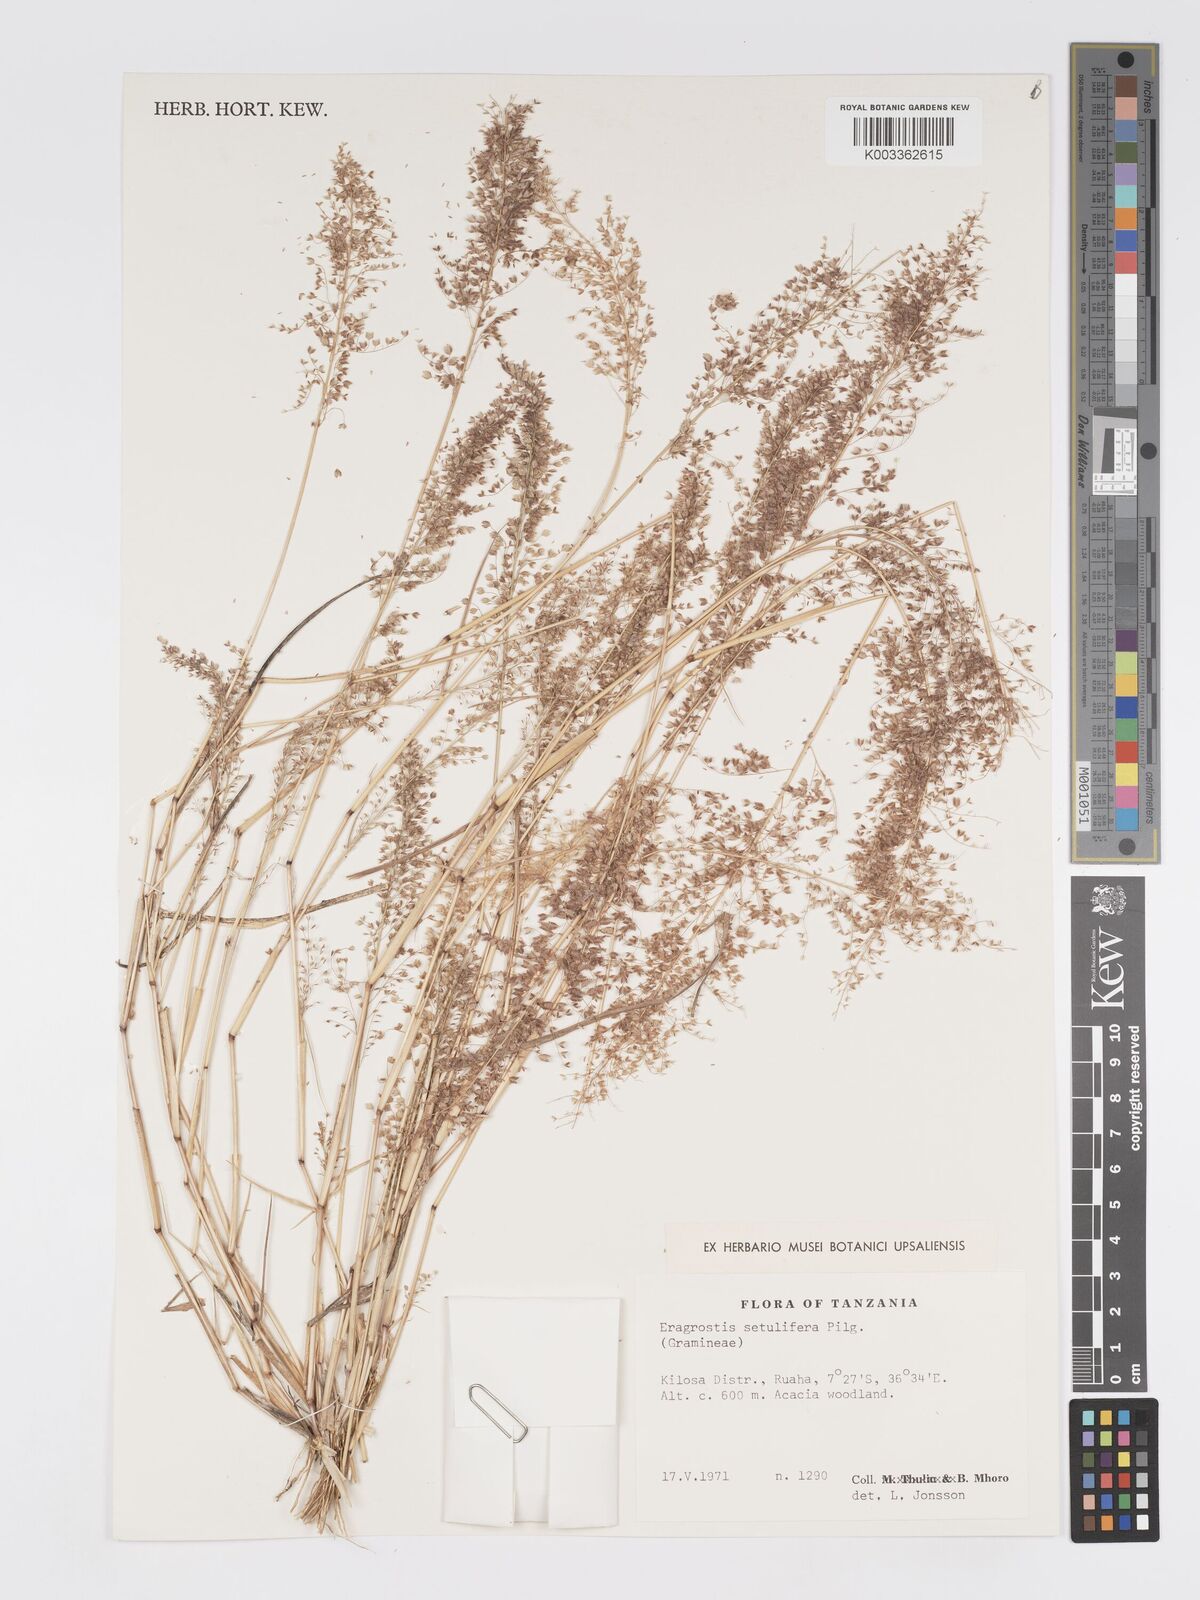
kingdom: Plantae
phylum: Tracheophyta
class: Liliopsida
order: Poales
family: Poaceae
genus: Eragrostis
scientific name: Eragrostis setulifera
